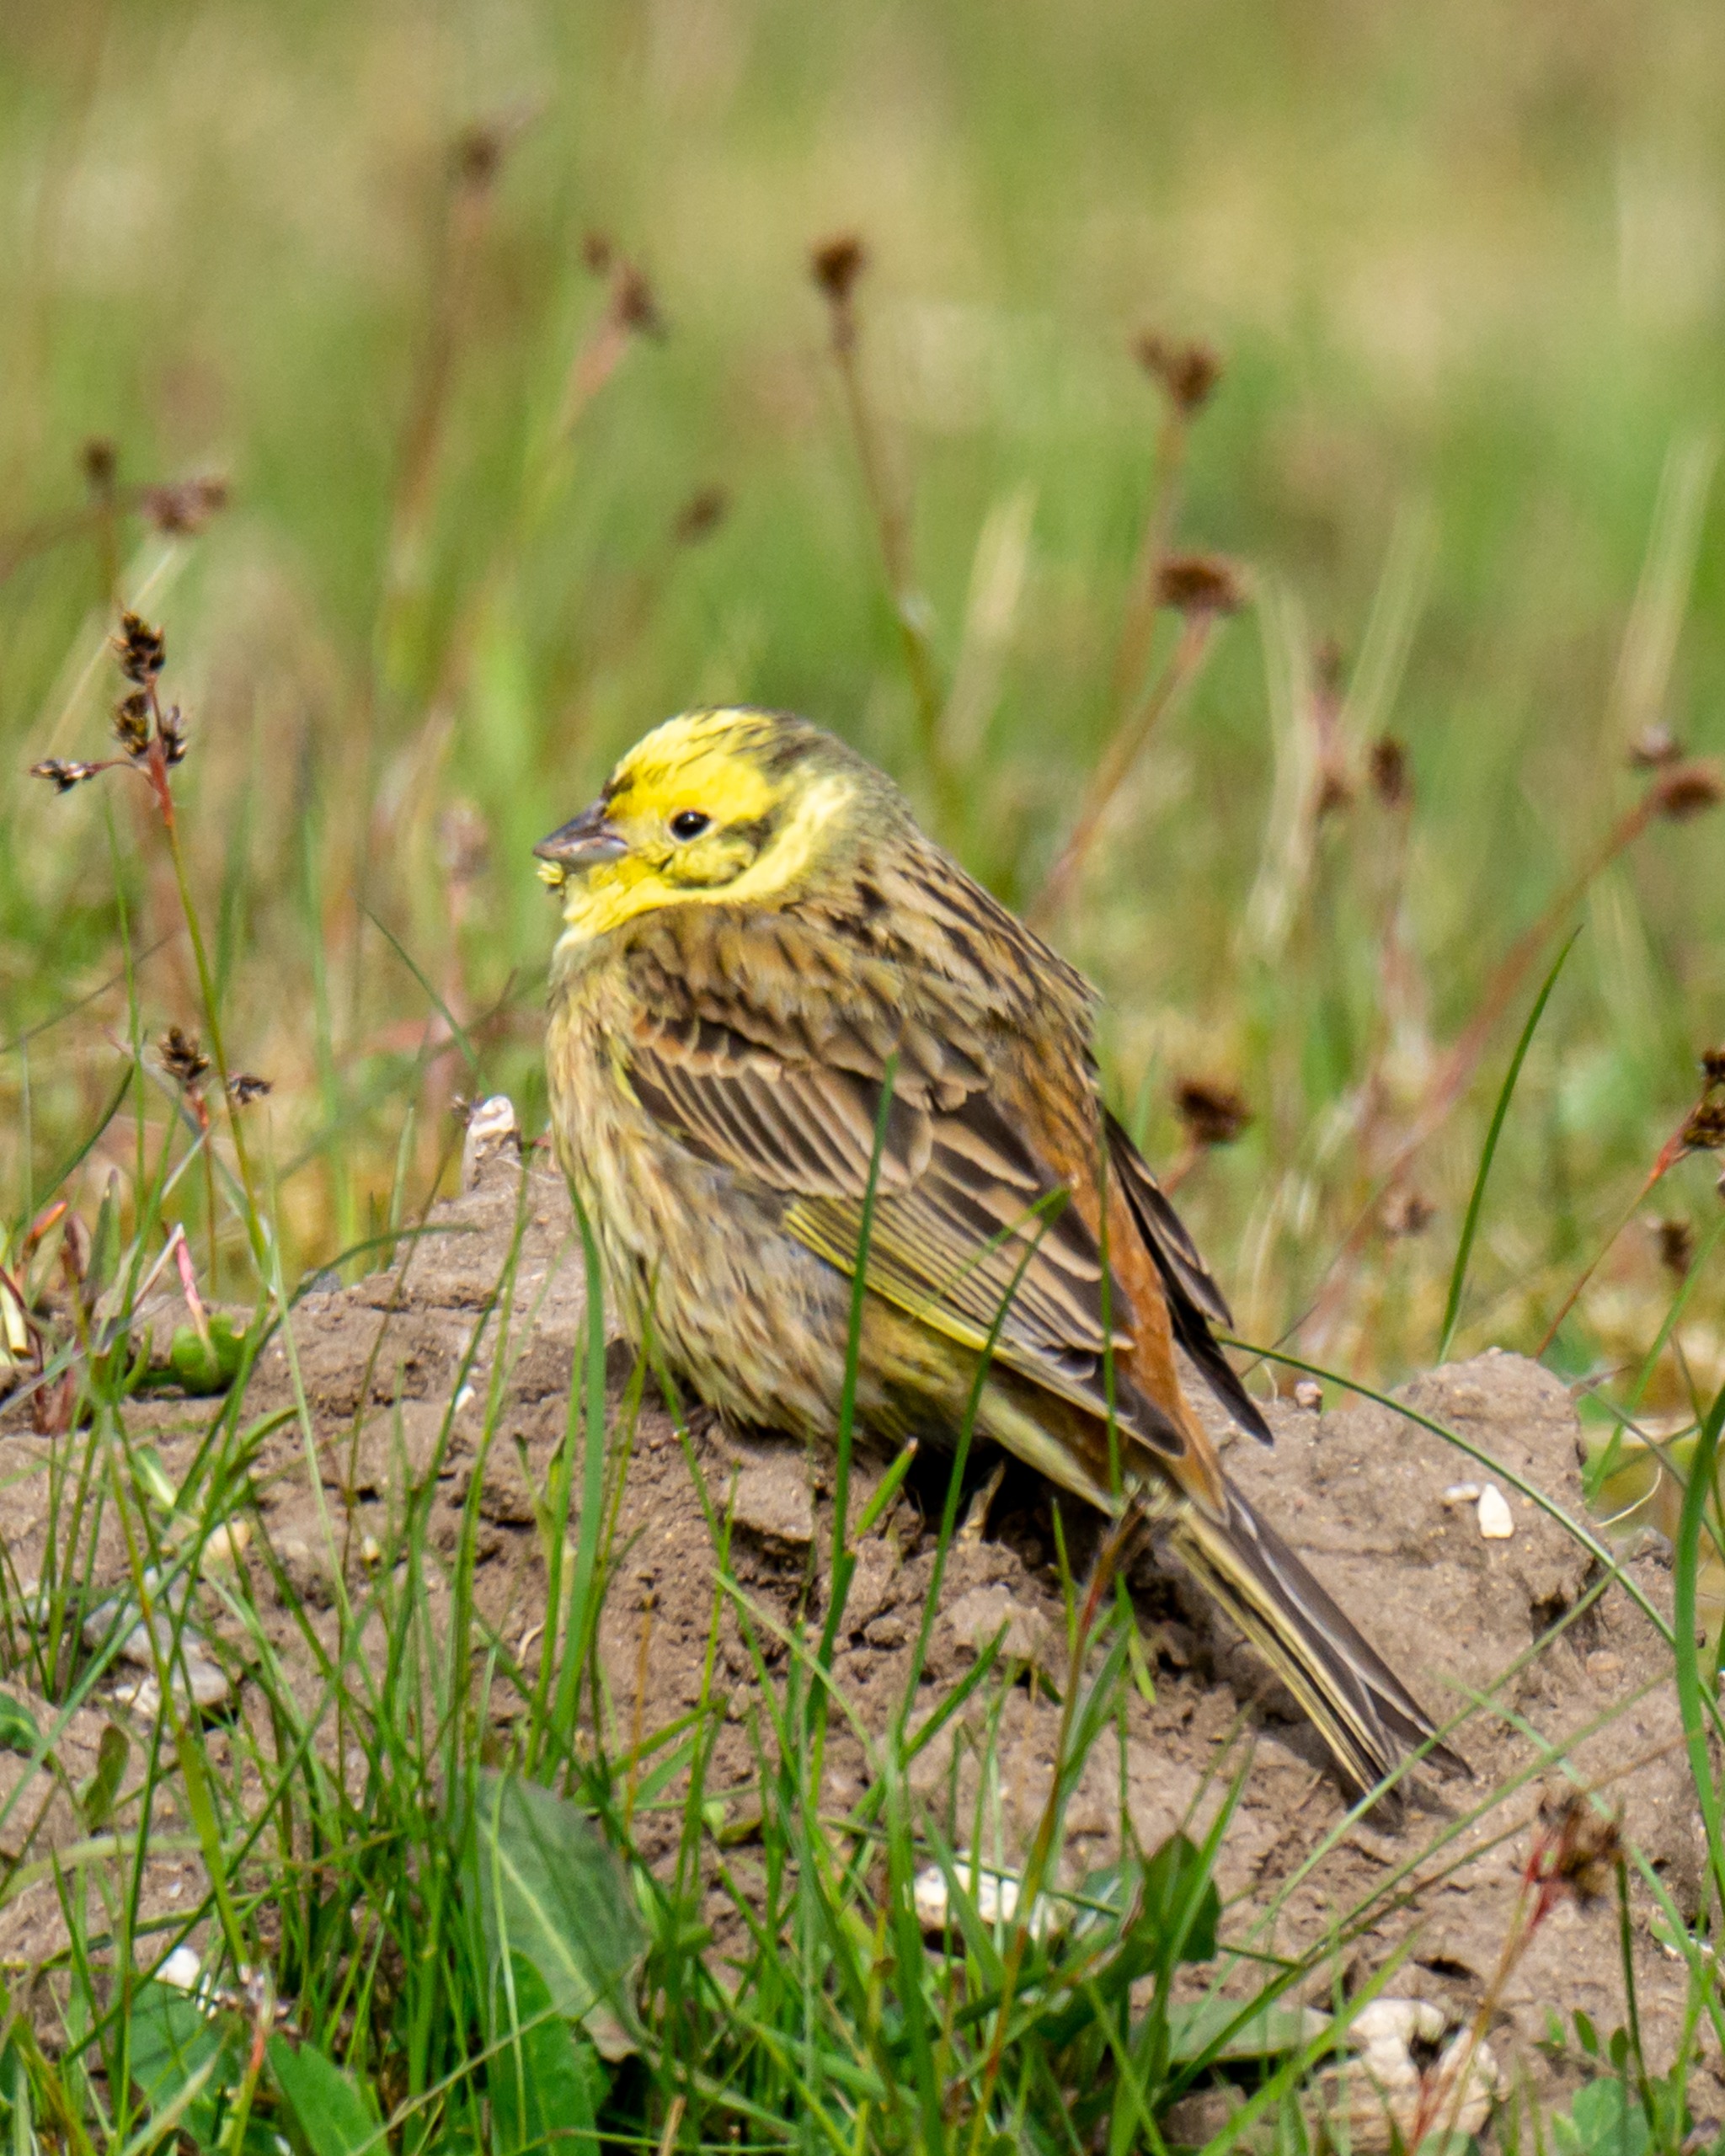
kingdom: Animalia
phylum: Chordata
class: Aves
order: Passeriformes
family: Emberizidae
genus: Emberiza
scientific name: Emberiza citrinella
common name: Gulspurv
